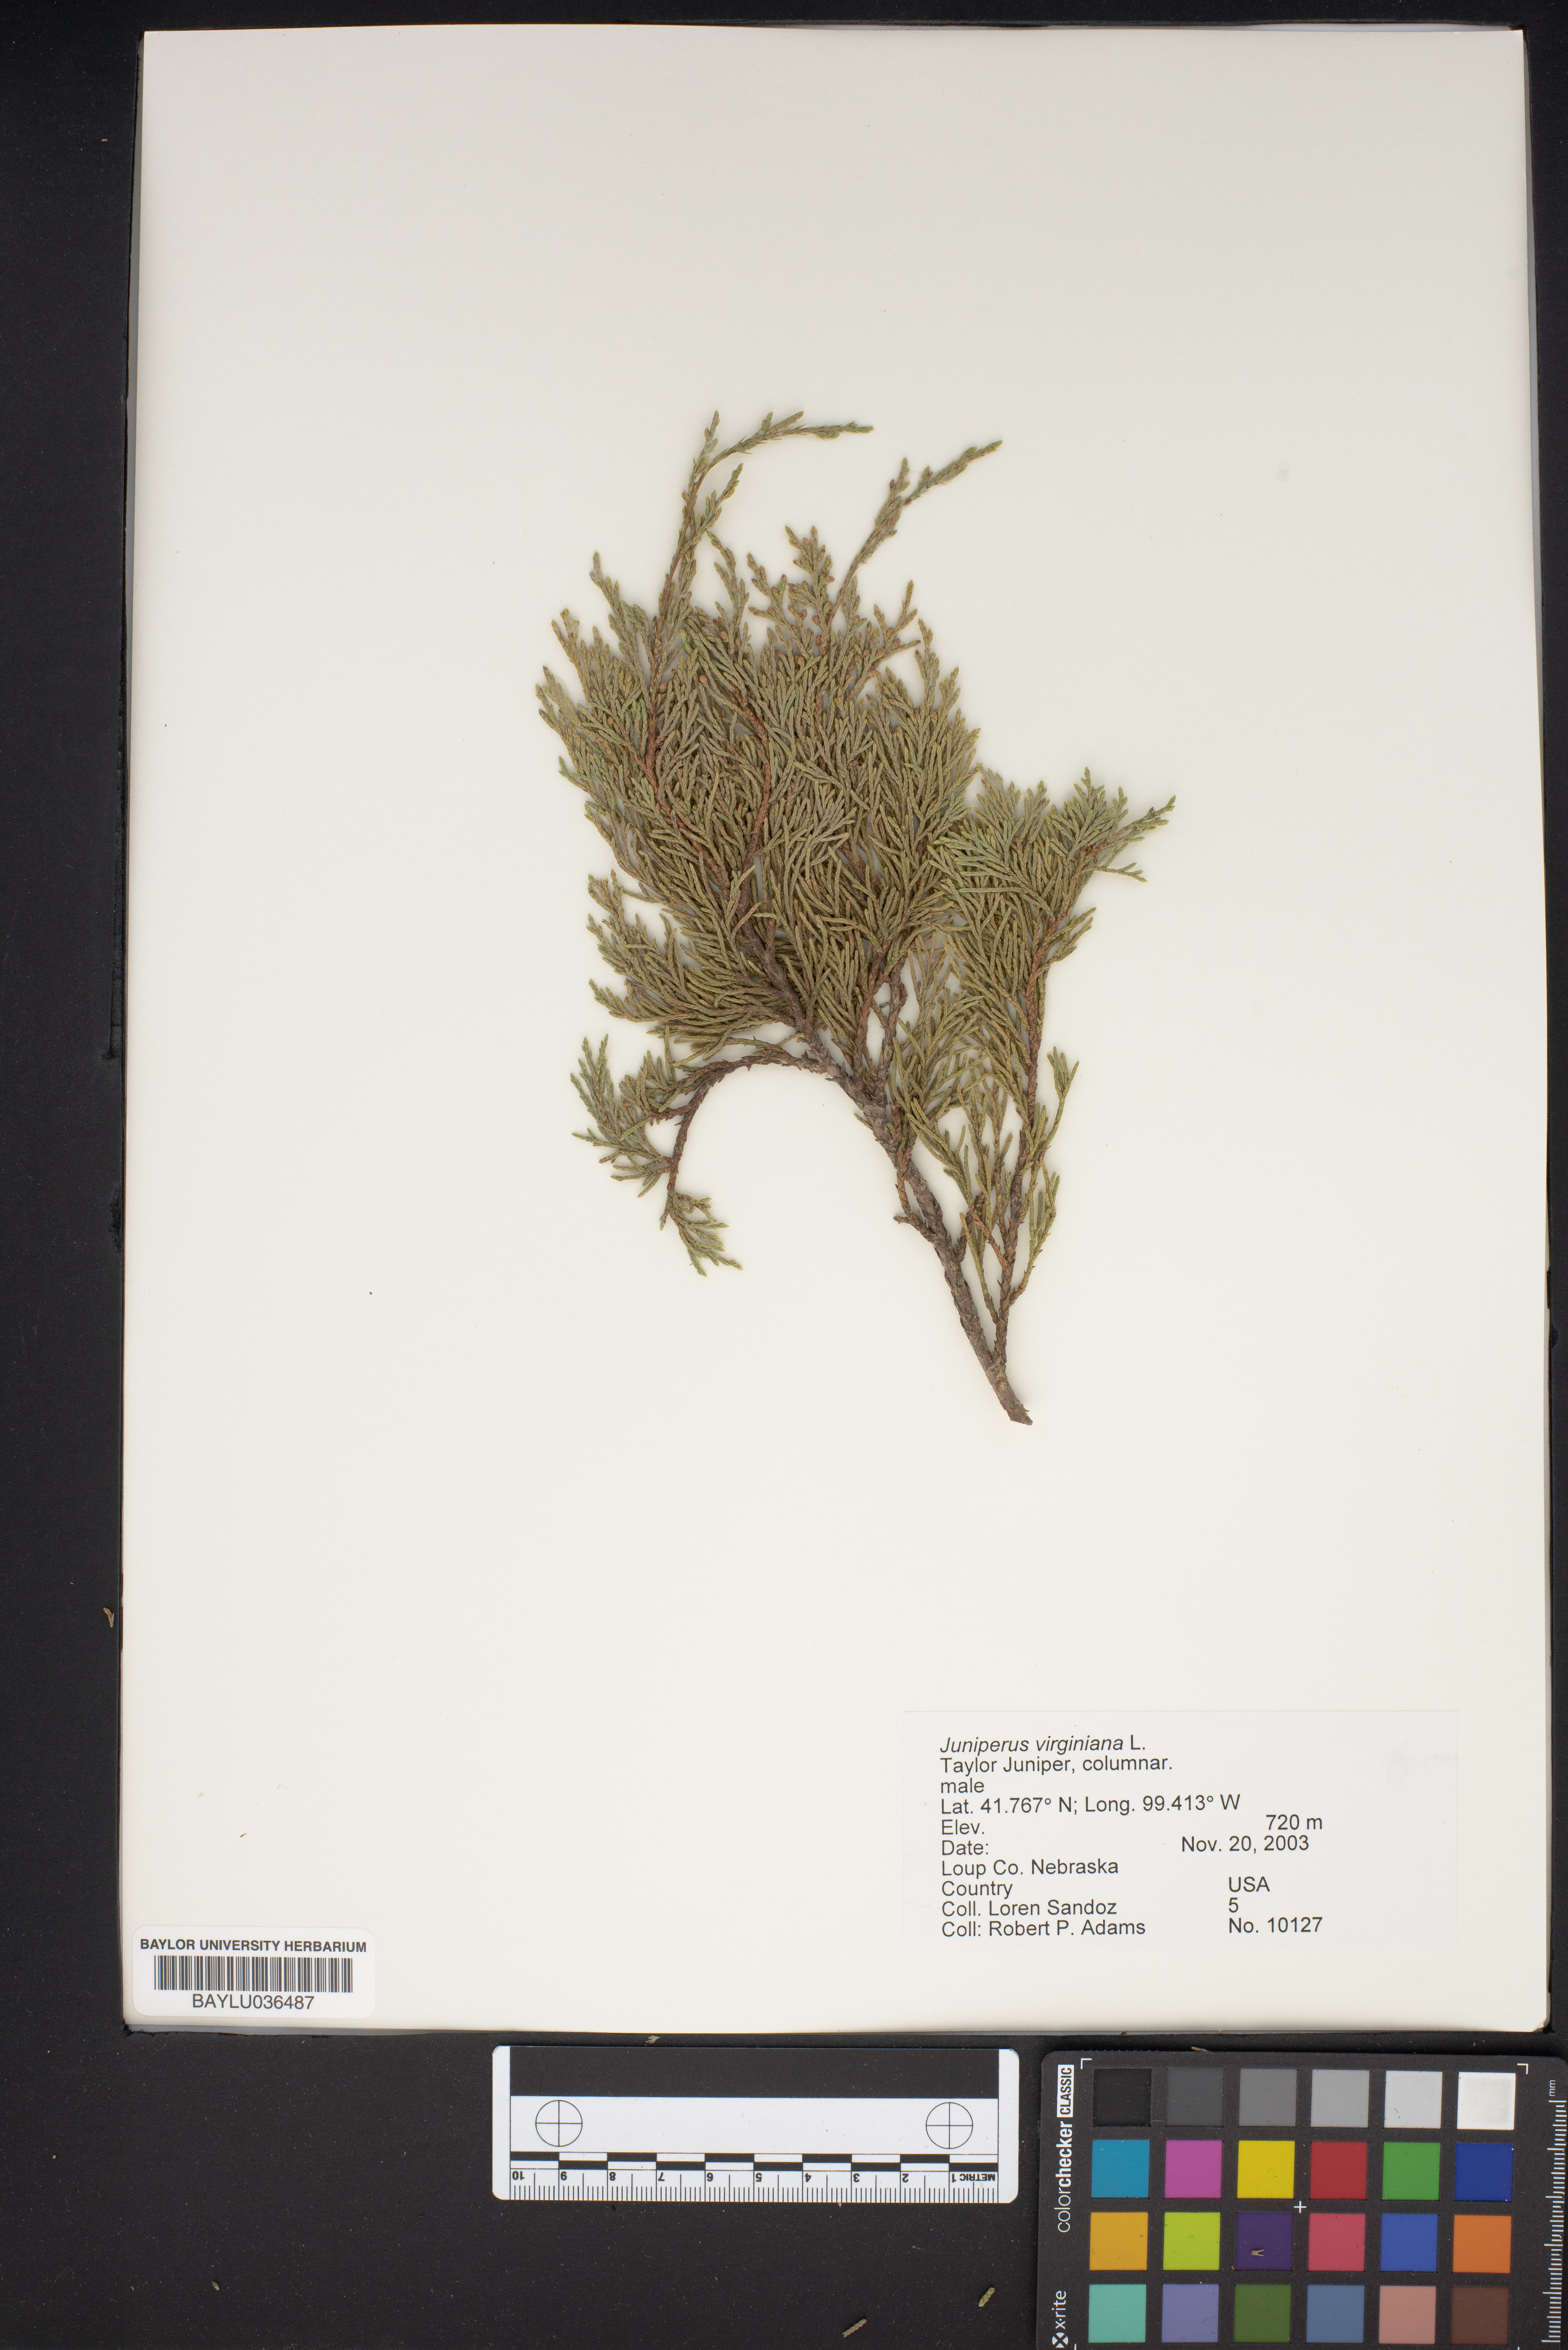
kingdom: Plantae
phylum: Tracheophyta
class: Pinopsida
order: Pinales
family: Cupressaceae
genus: Juniperus
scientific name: Juniperus virginiana
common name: Red juniper
